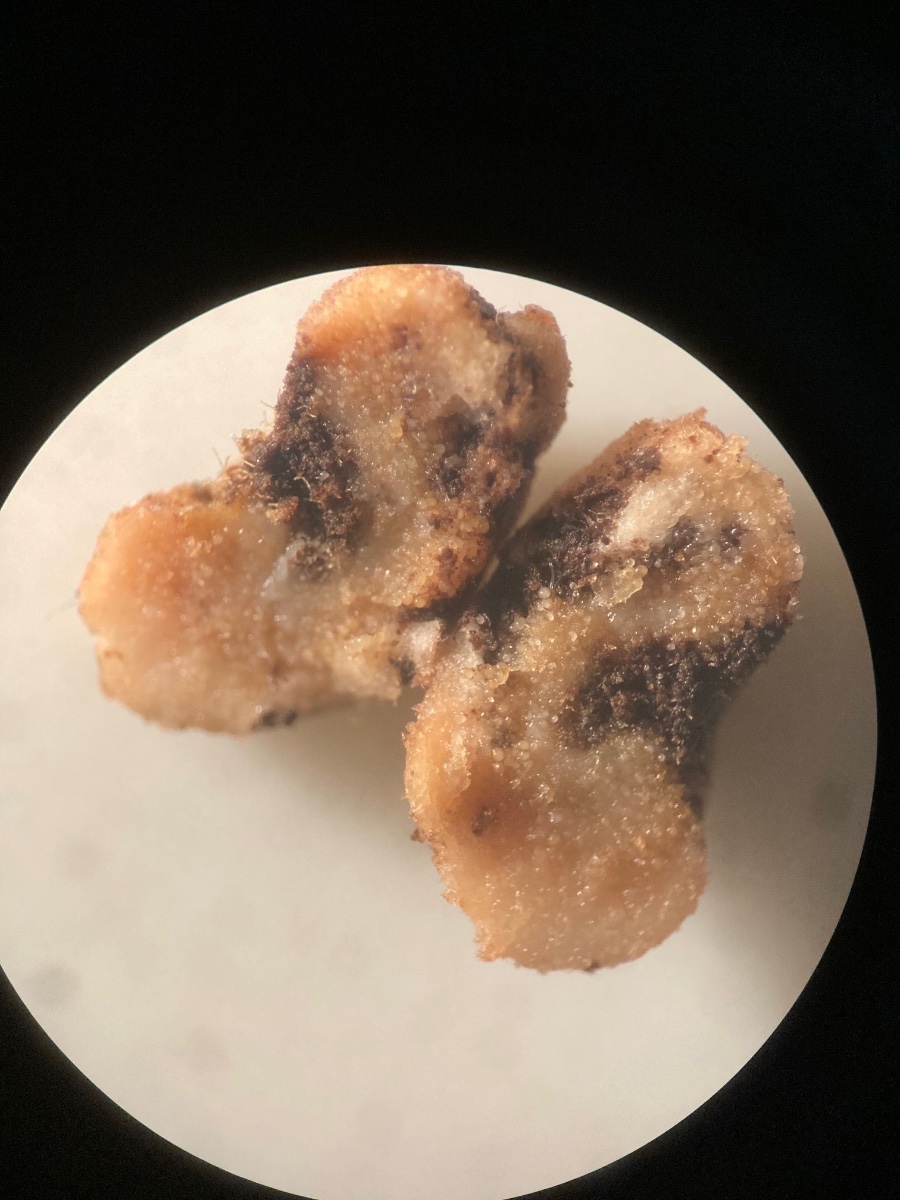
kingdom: Fungi
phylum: Glomeromycota
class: Glomeromycetes
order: Glomerales
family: Glomeraceae
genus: Glomus
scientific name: Glomus macrocarpum
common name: knoldet arbuskelsvamp
